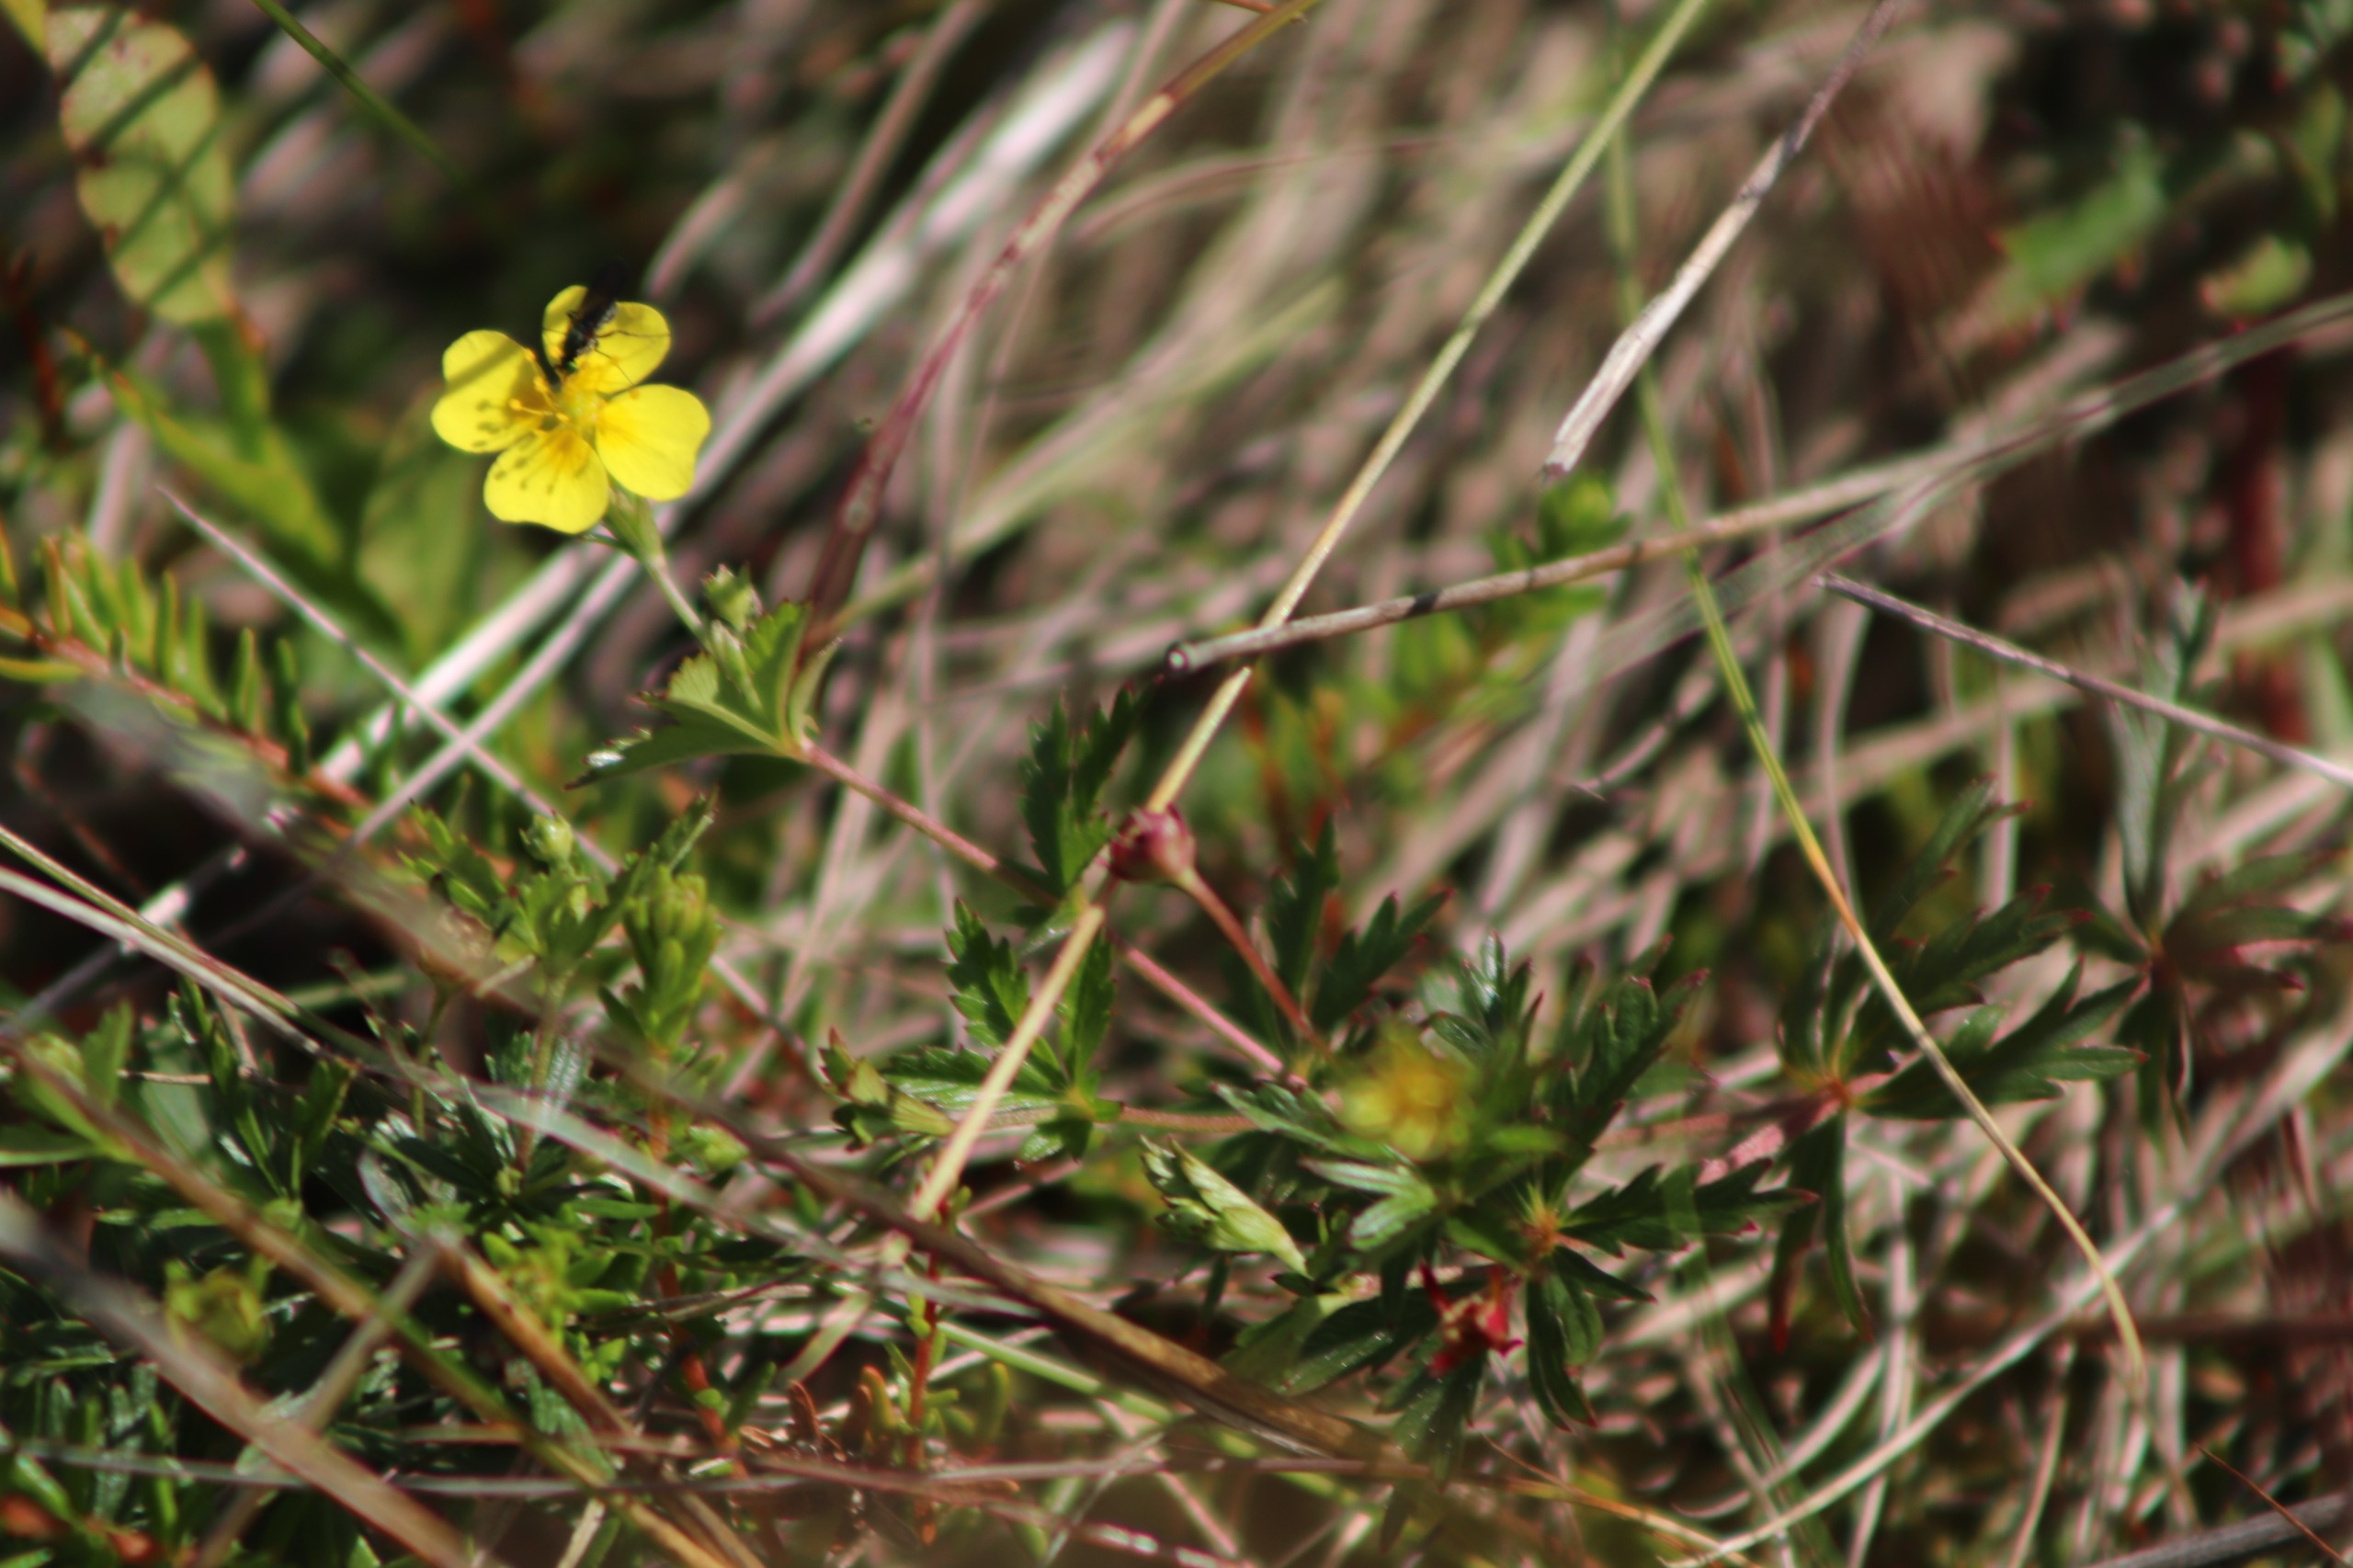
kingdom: Plantae
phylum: Tracheophyta
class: Magnoliopsida
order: Rosales
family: Rosaceae
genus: Potentilla
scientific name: Potentilla erecta
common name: Tormentil
